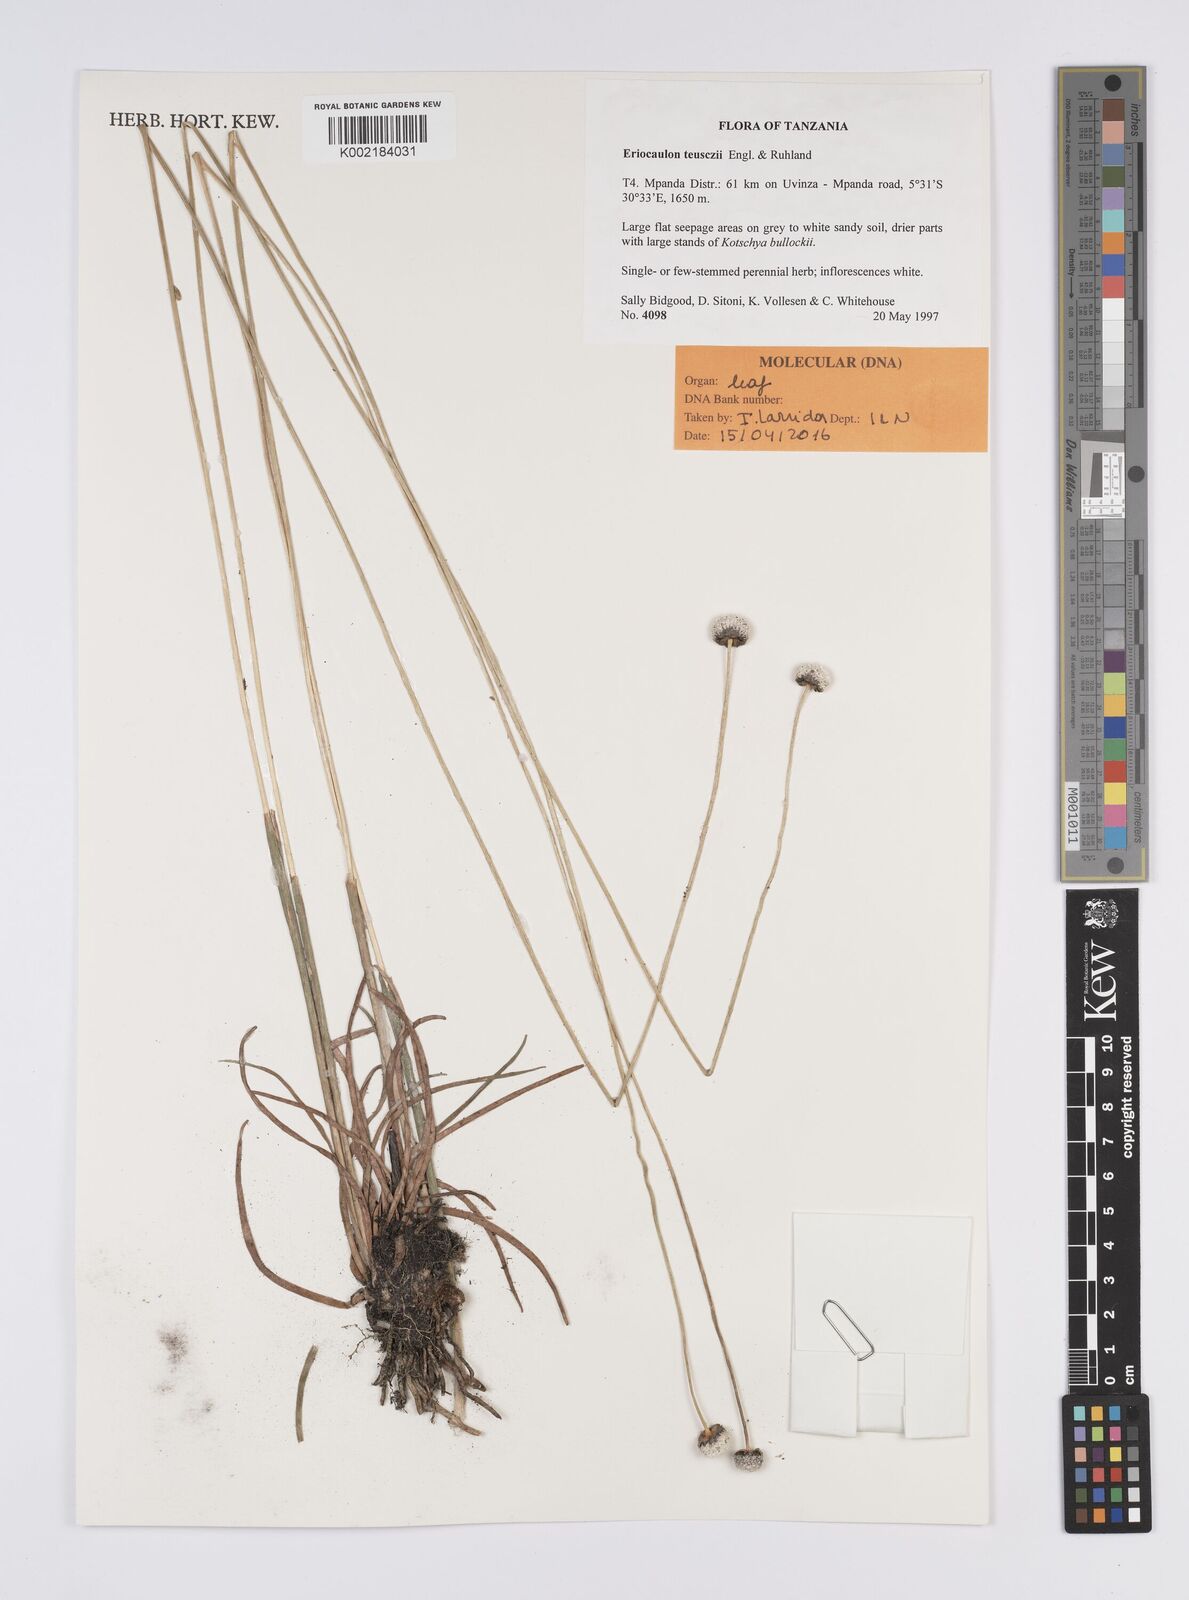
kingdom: Plantae
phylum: Tracheophyta
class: Liliopsida
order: Poales
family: Eriocaulaceae
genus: Eriocaulon
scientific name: Eriocaulon teusczii
